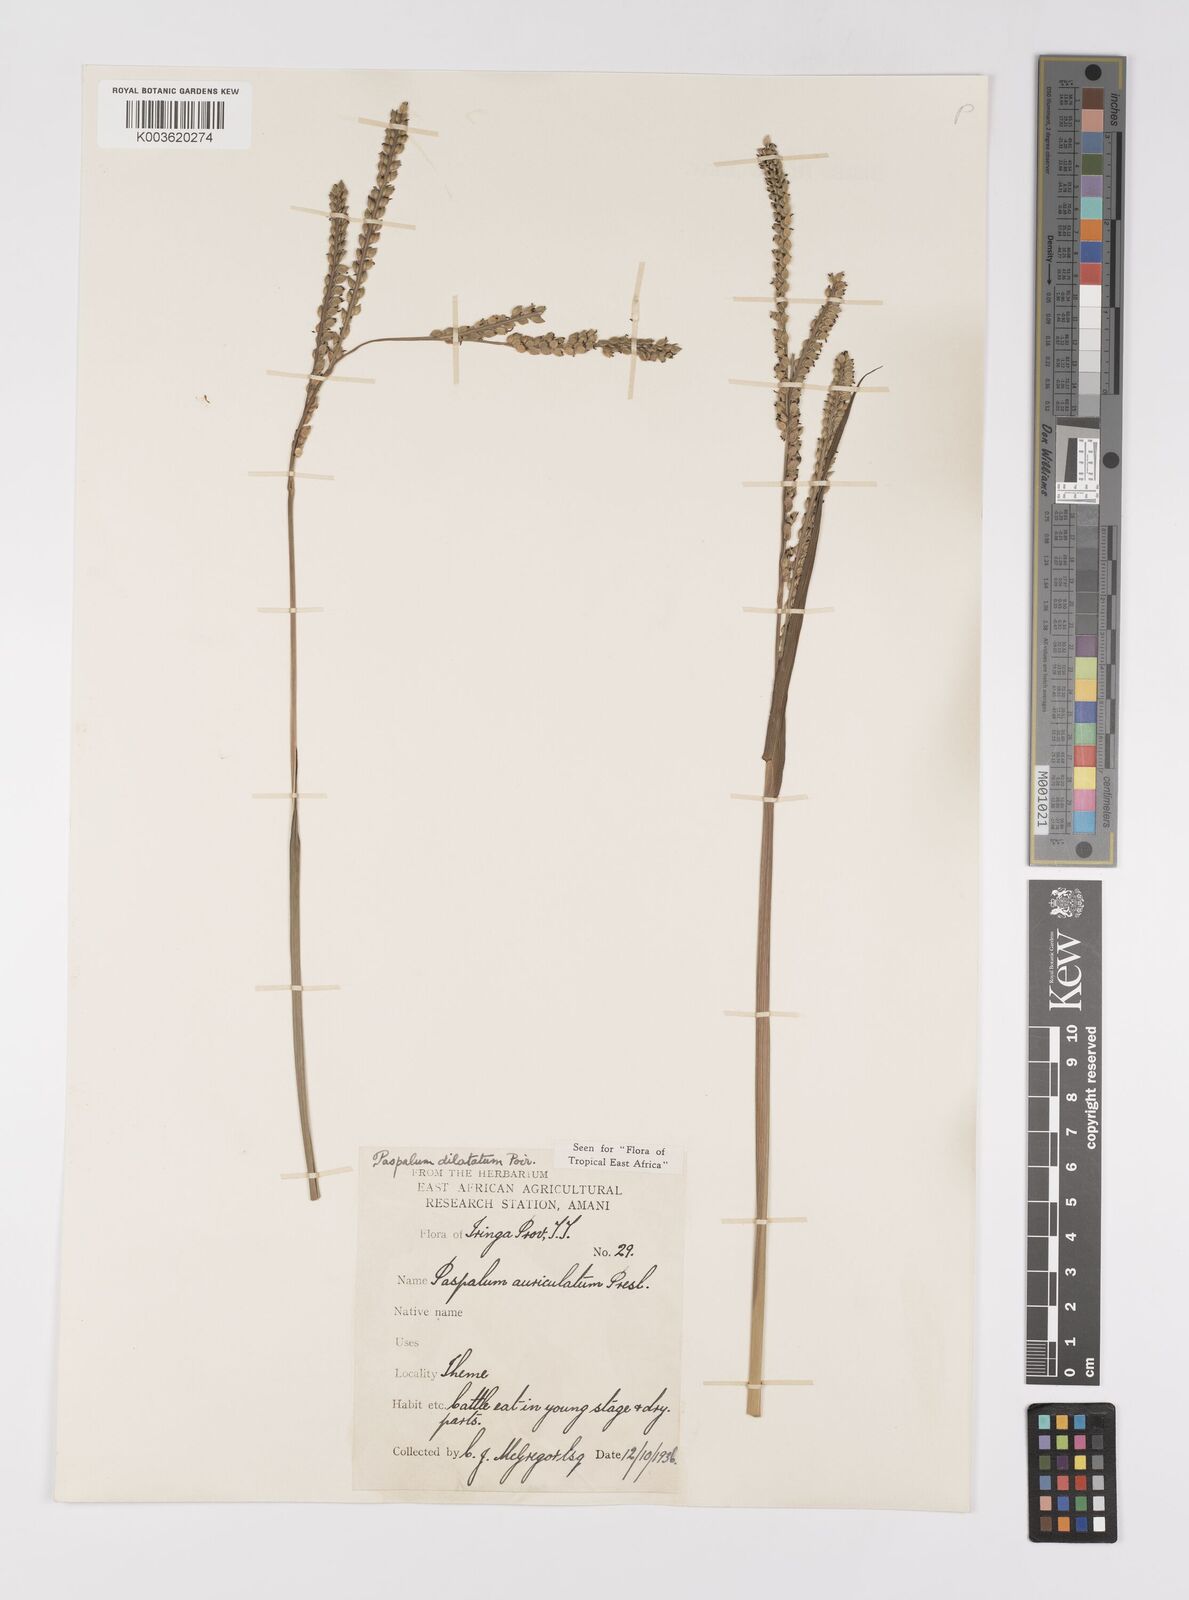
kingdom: Plantae
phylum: Tracheophyta
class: Liliopsida
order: Poales
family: Poaceae
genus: Paspalum
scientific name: Paspalum dilatatum
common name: Dallisgrass
